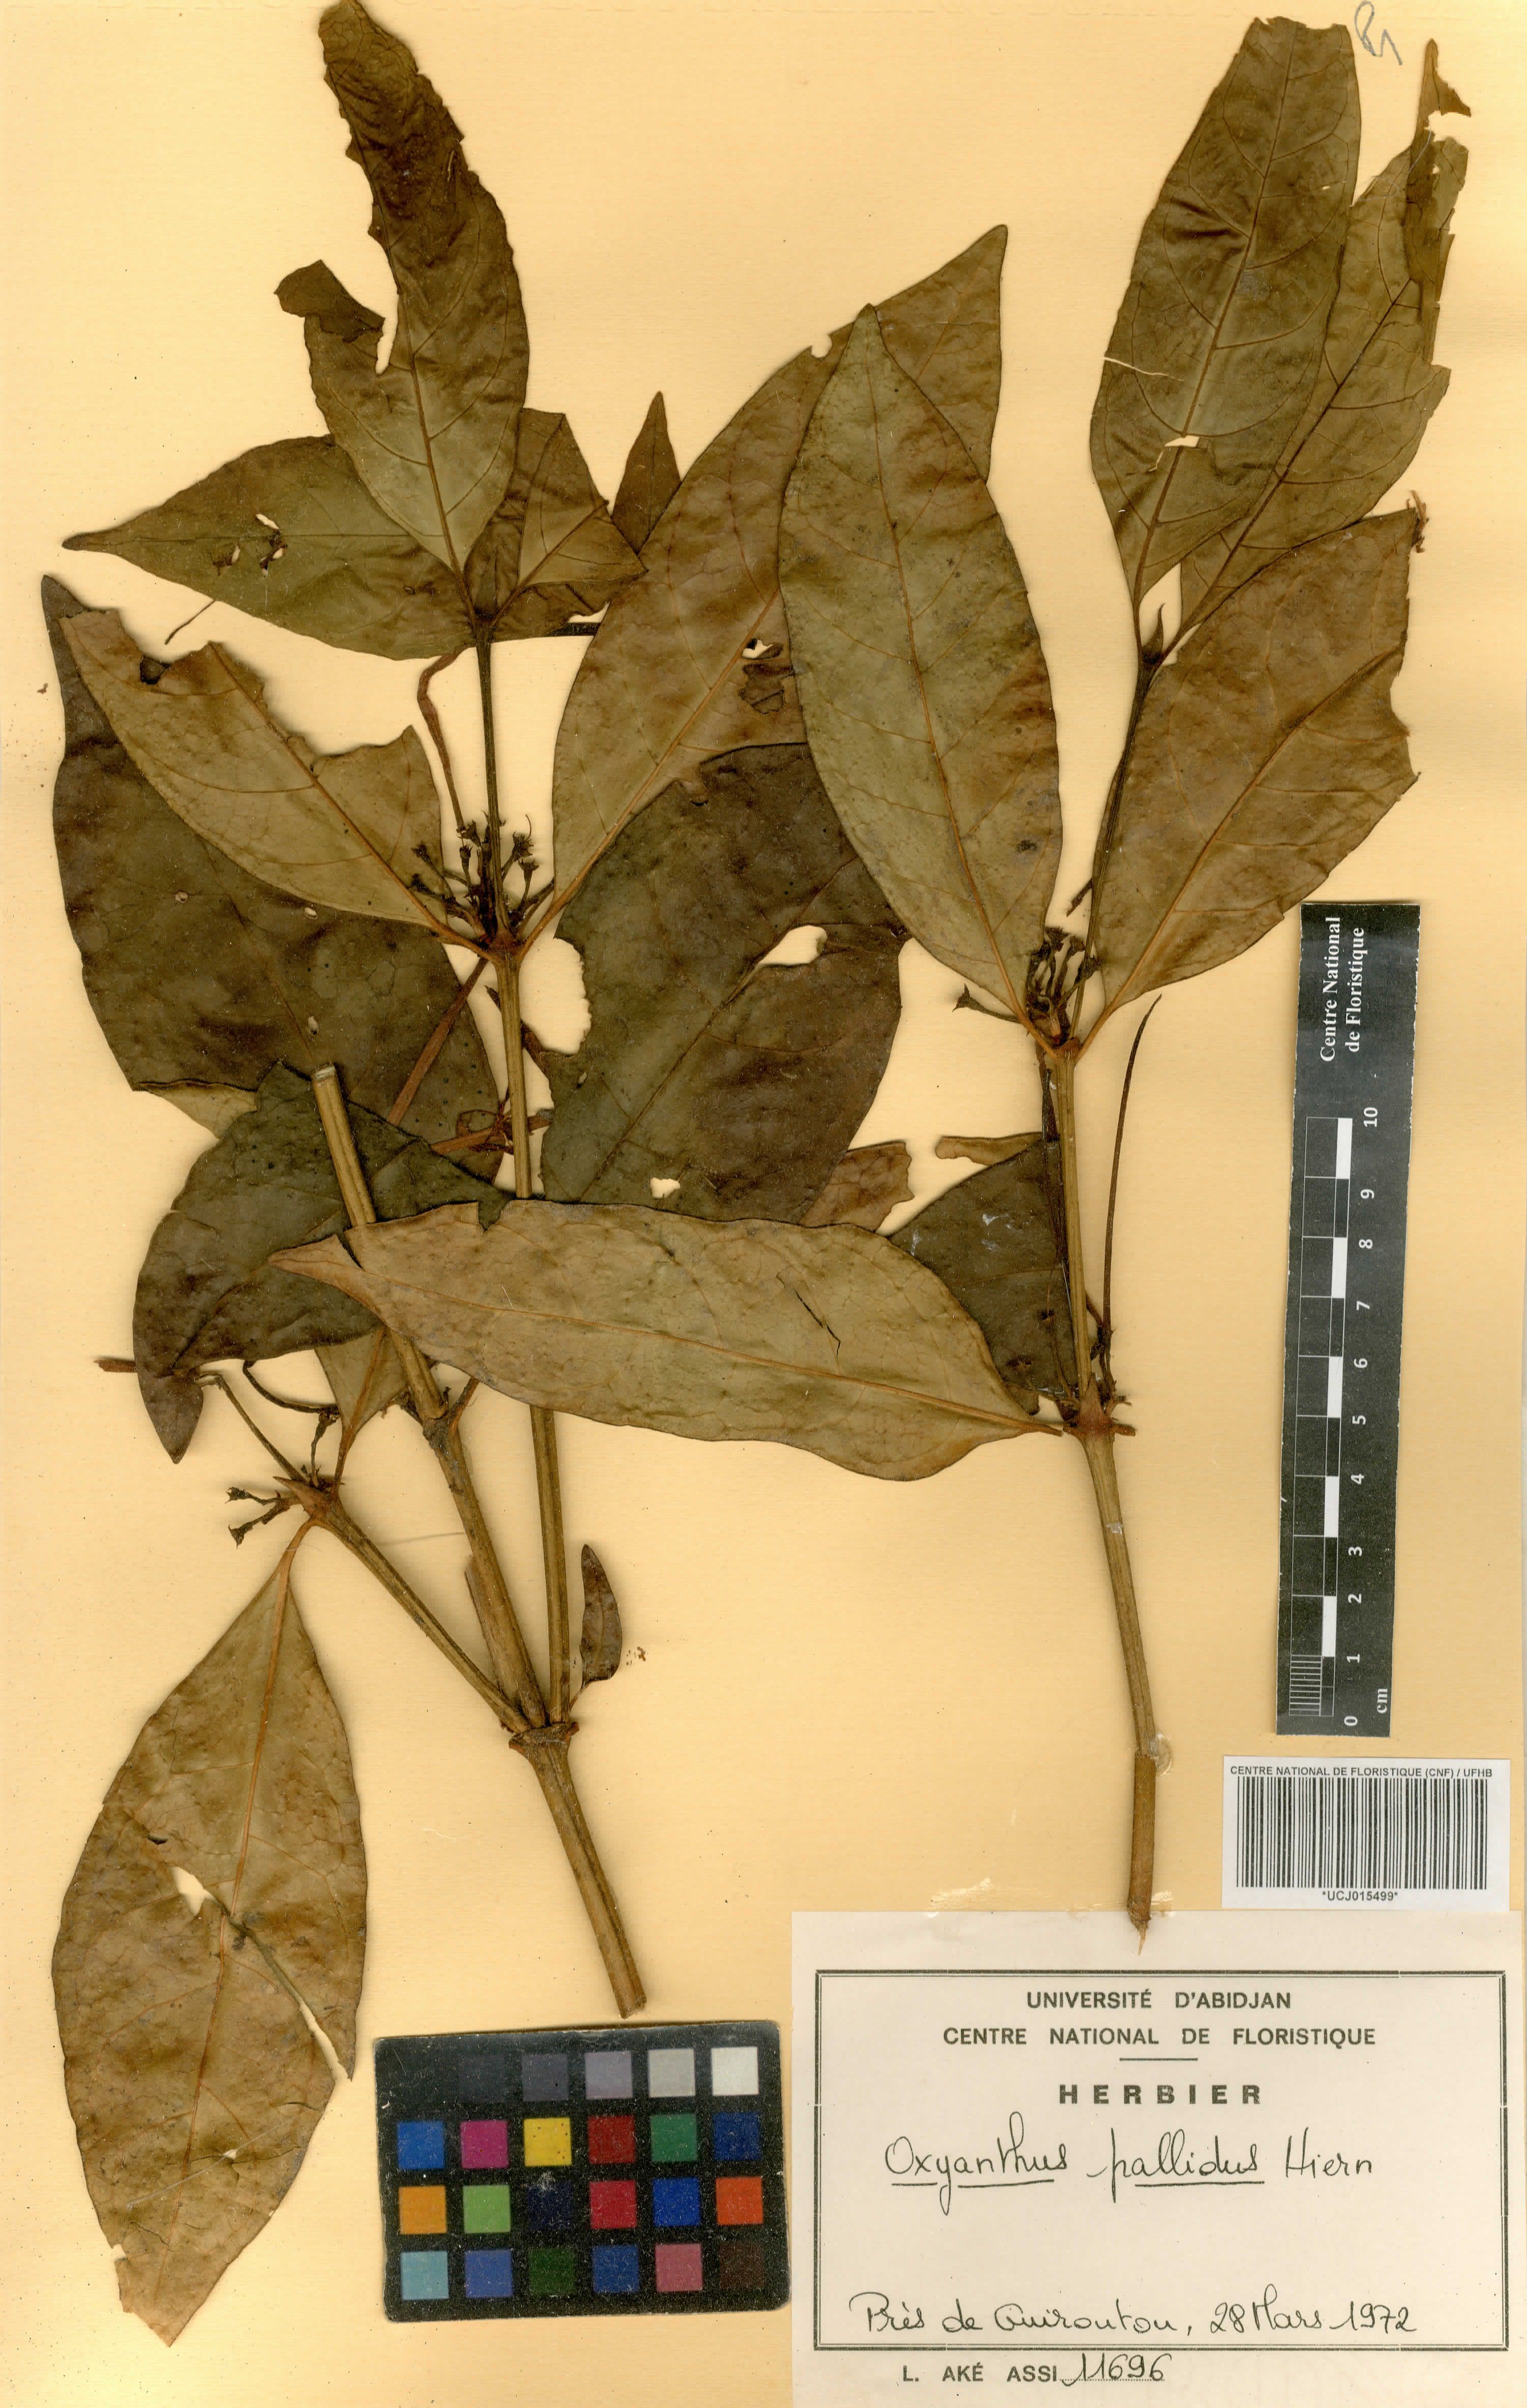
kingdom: Plantae
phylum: Tracheophyta
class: Magnoliopsida
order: Gentianales
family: Rubiaceae
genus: Oxyanthus
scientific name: Oxyanthus pallidus
